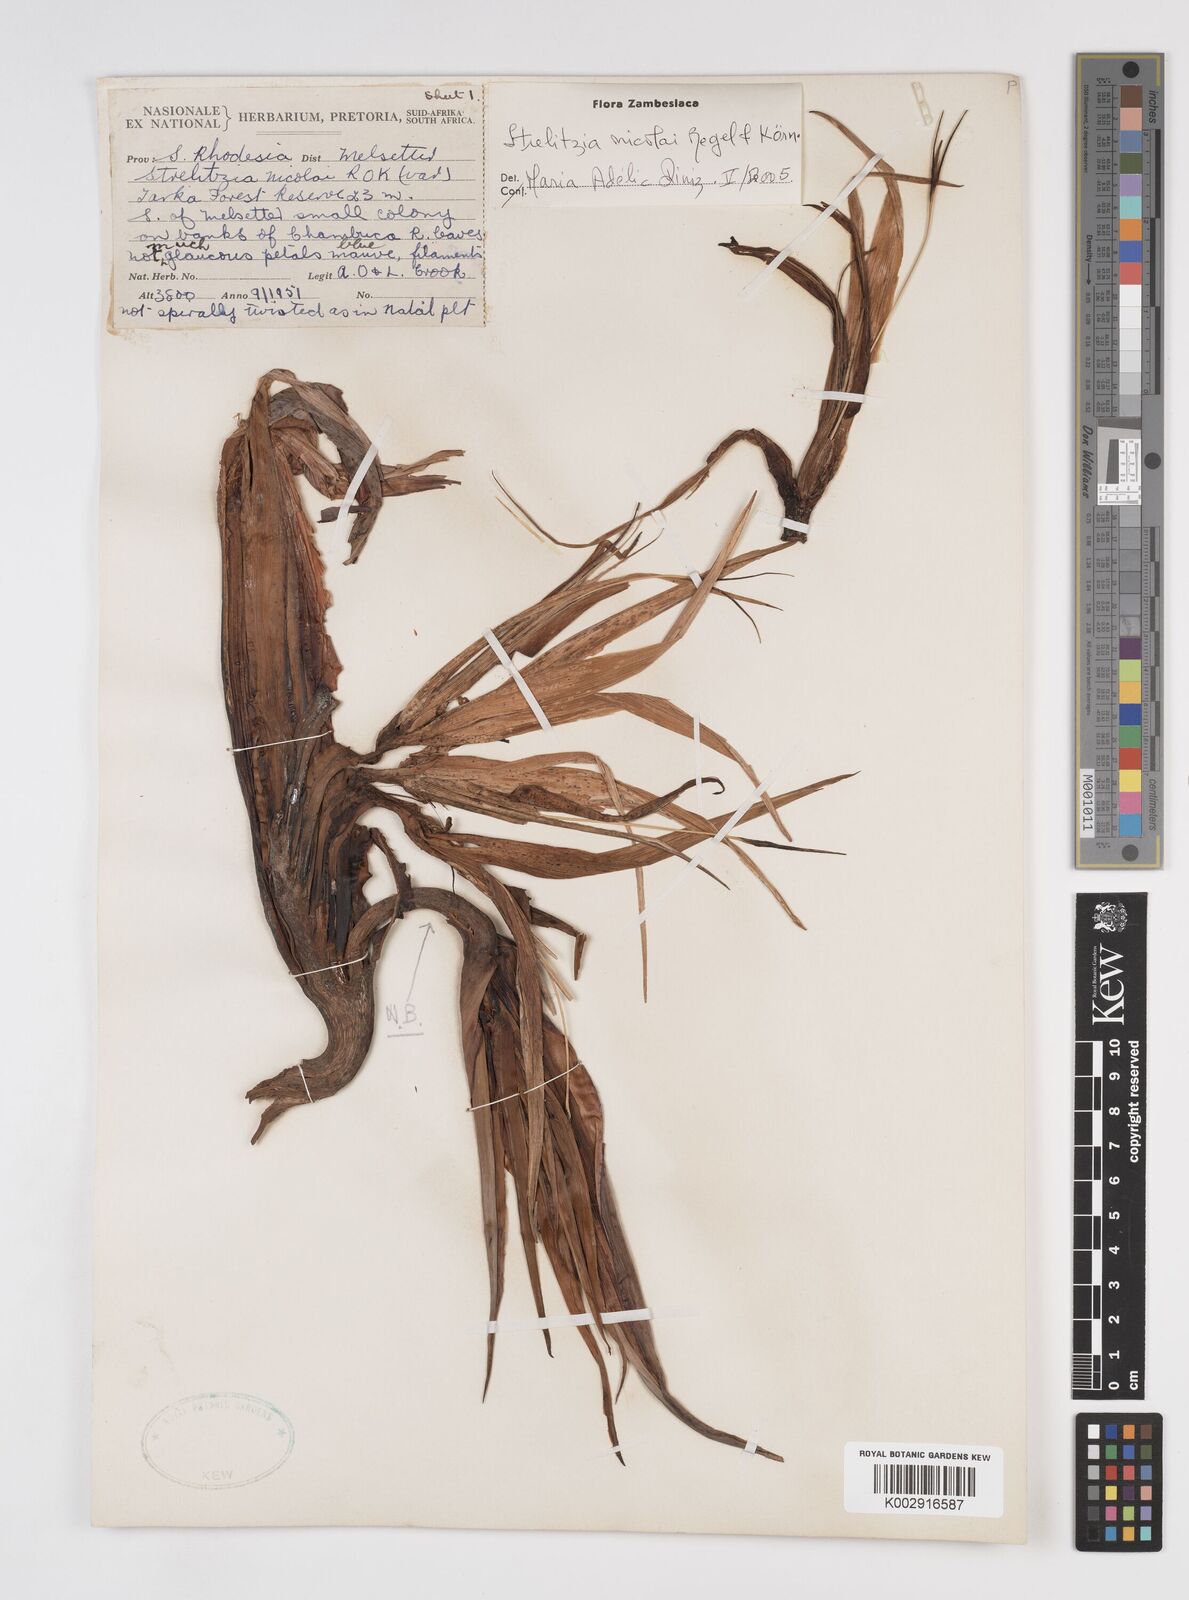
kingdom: Plantae
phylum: Tracheophyta
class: Liliopsida
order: Zingiberales
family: Strelitziaceae
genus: Strelitzia
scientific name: Strelitzia nicolai
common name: Bird-of-paradise tree
